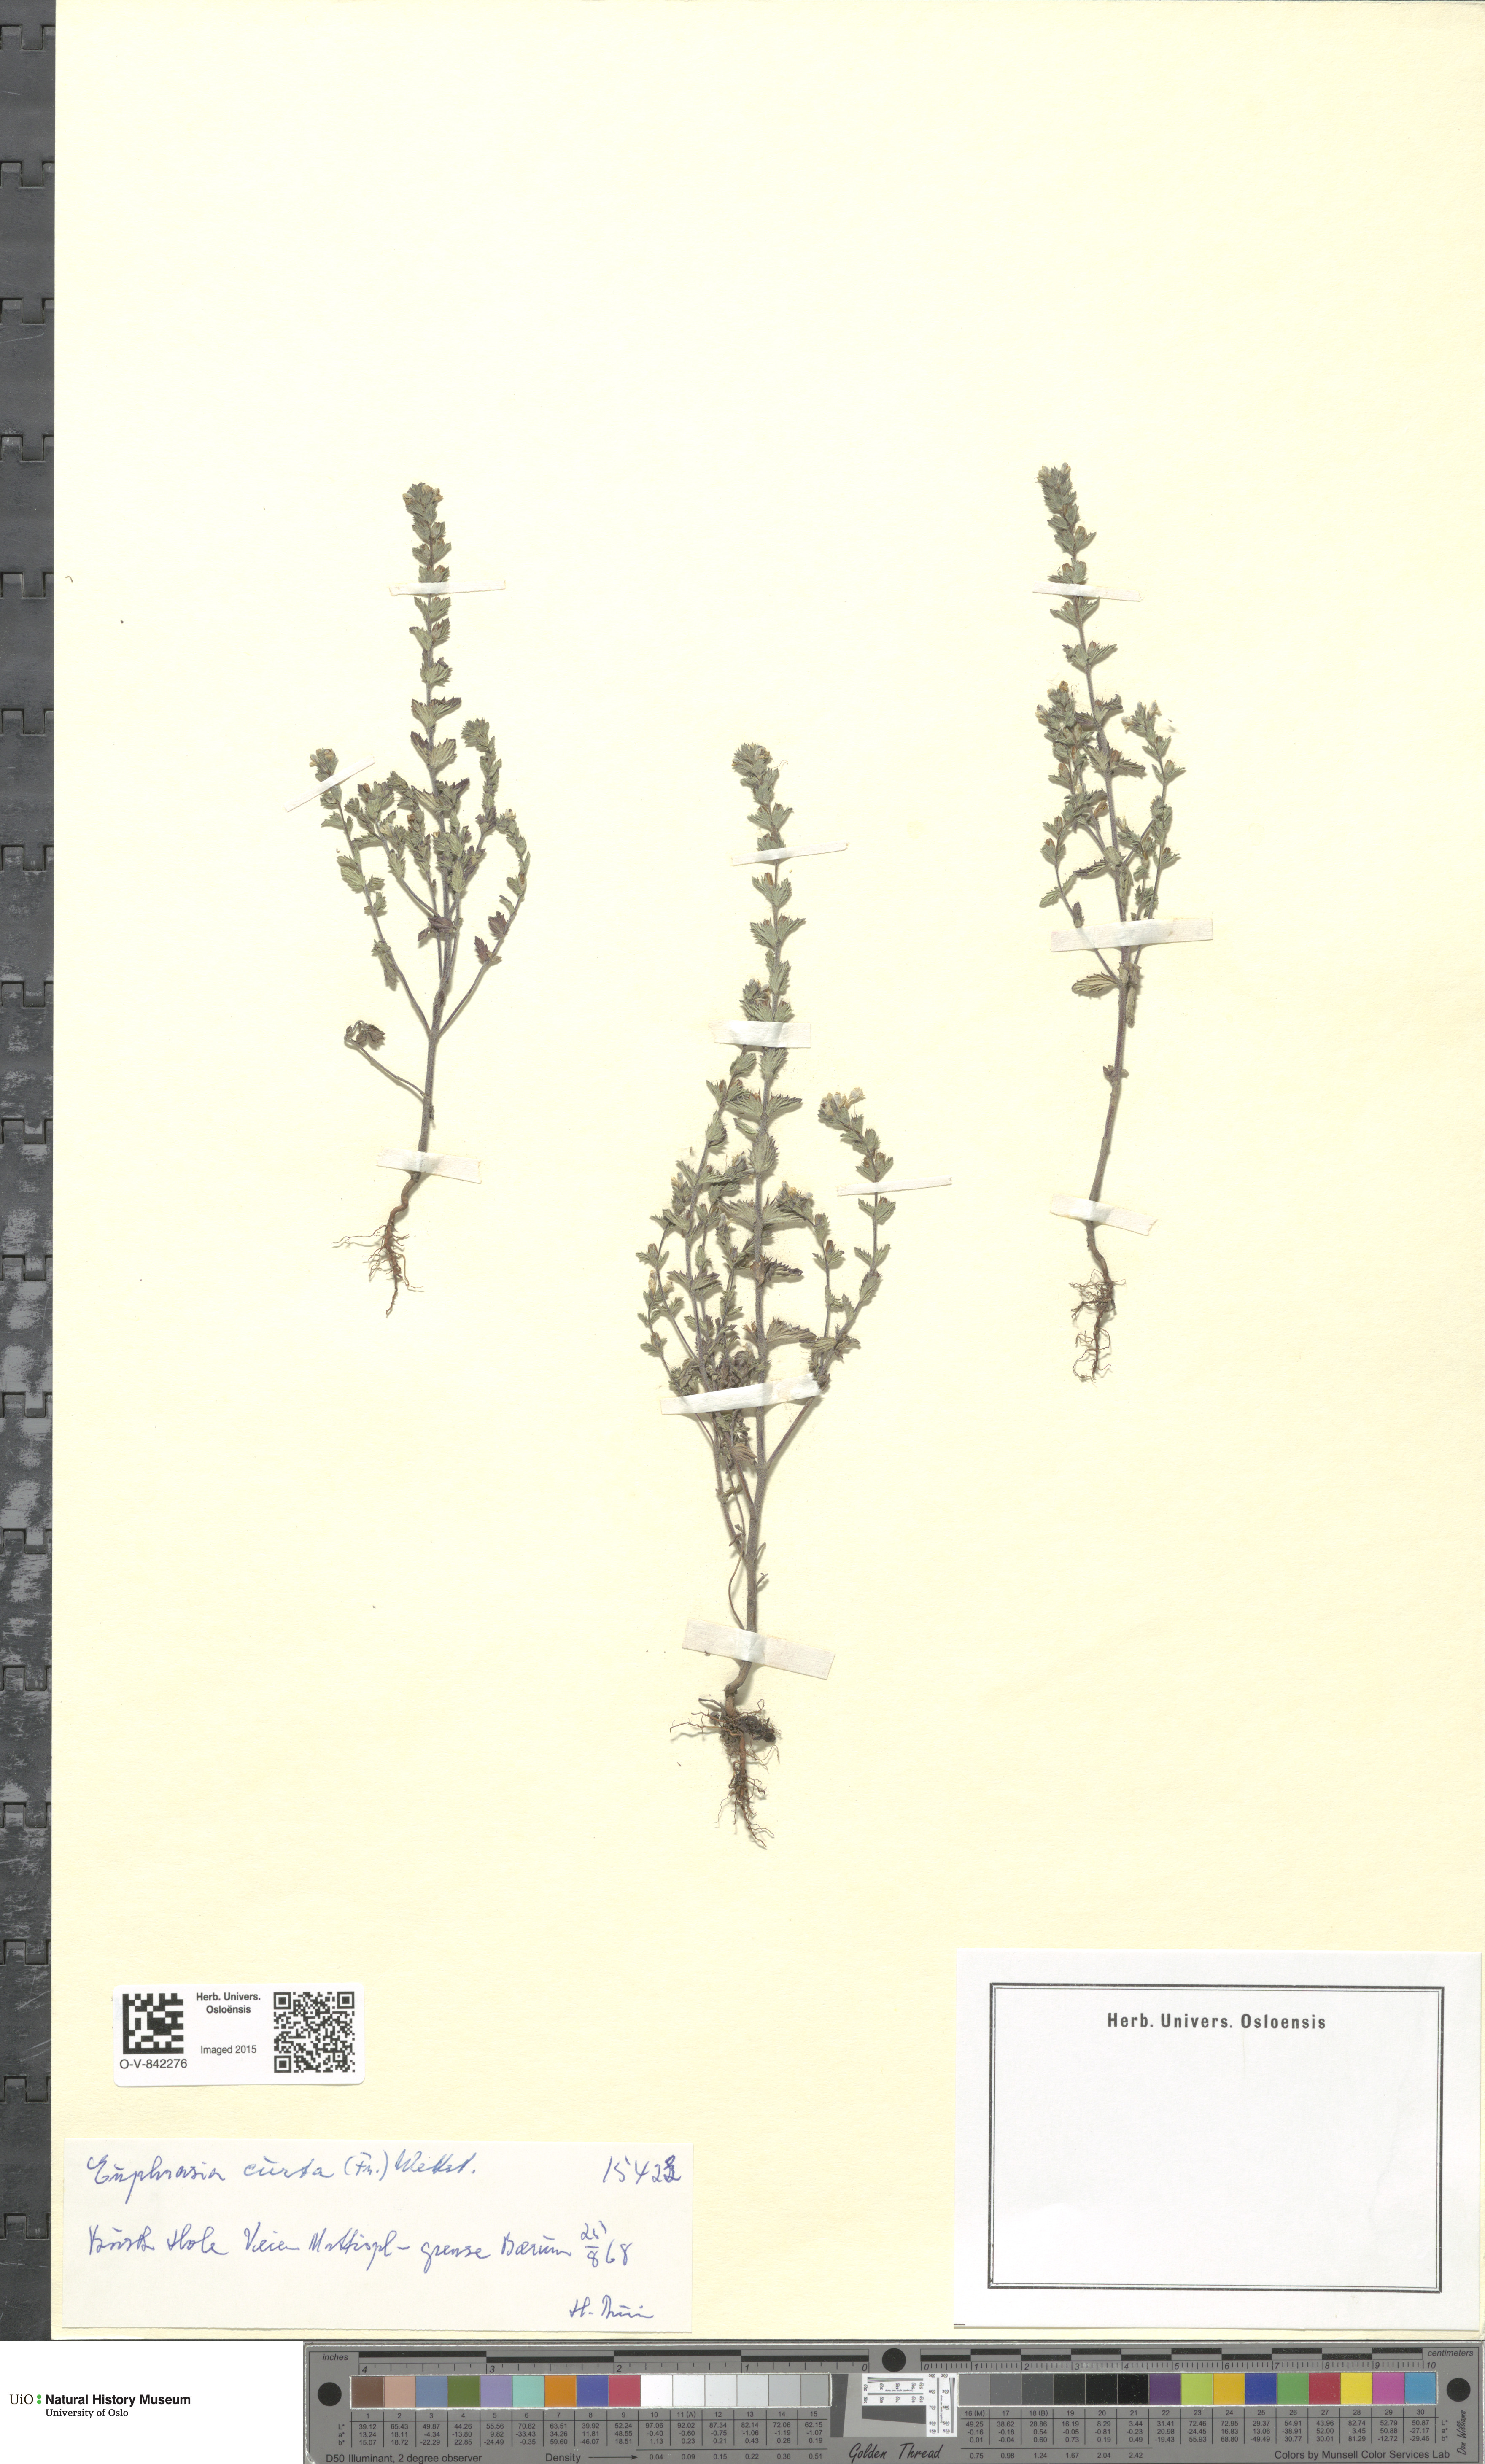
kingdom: Plantae
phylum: Tracheophyta
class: Magnoliopsida
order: Lamiales
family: Orobanchaceae
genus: Euphrasia
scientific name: Euphrasia micrantha
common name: Northern eyebright
